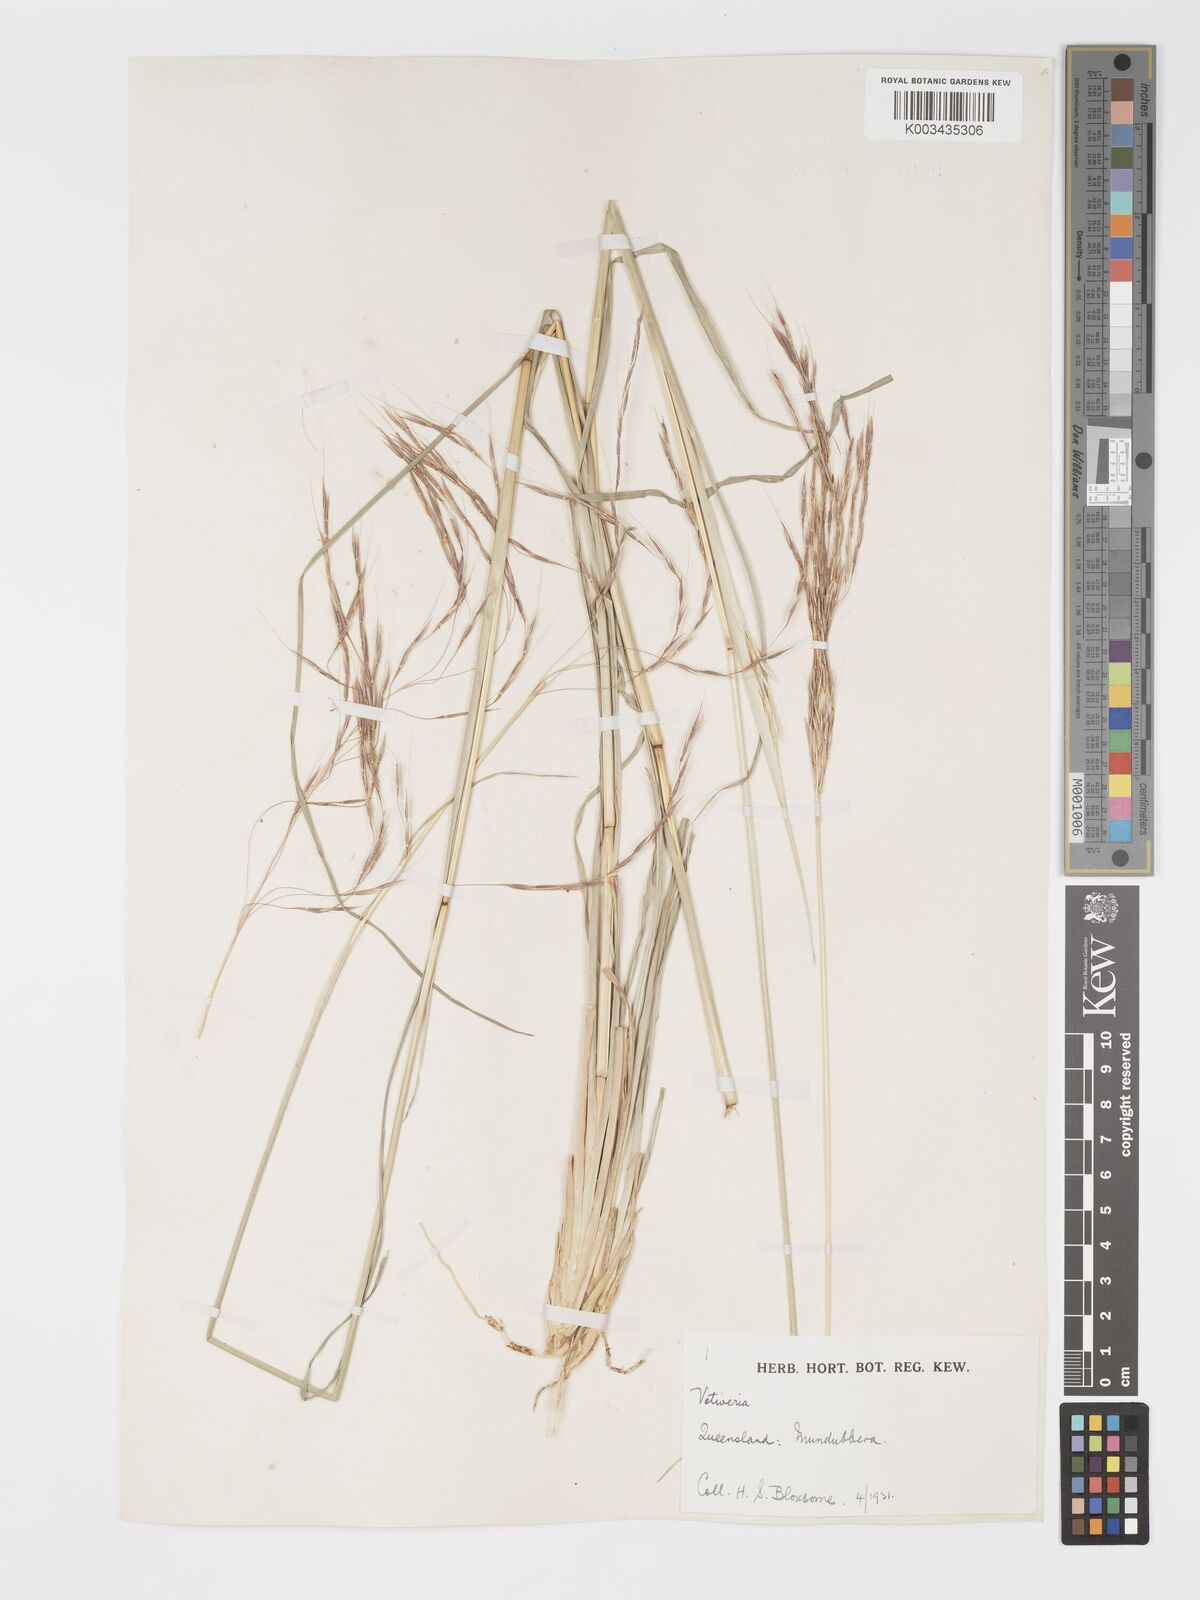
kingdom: Plantae
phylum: Tracheophyta
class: Liliopsida
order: Poales
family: Poaceae
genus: Chrysopogon
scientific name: Chrysopogon filipes
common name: Australian vetiver
